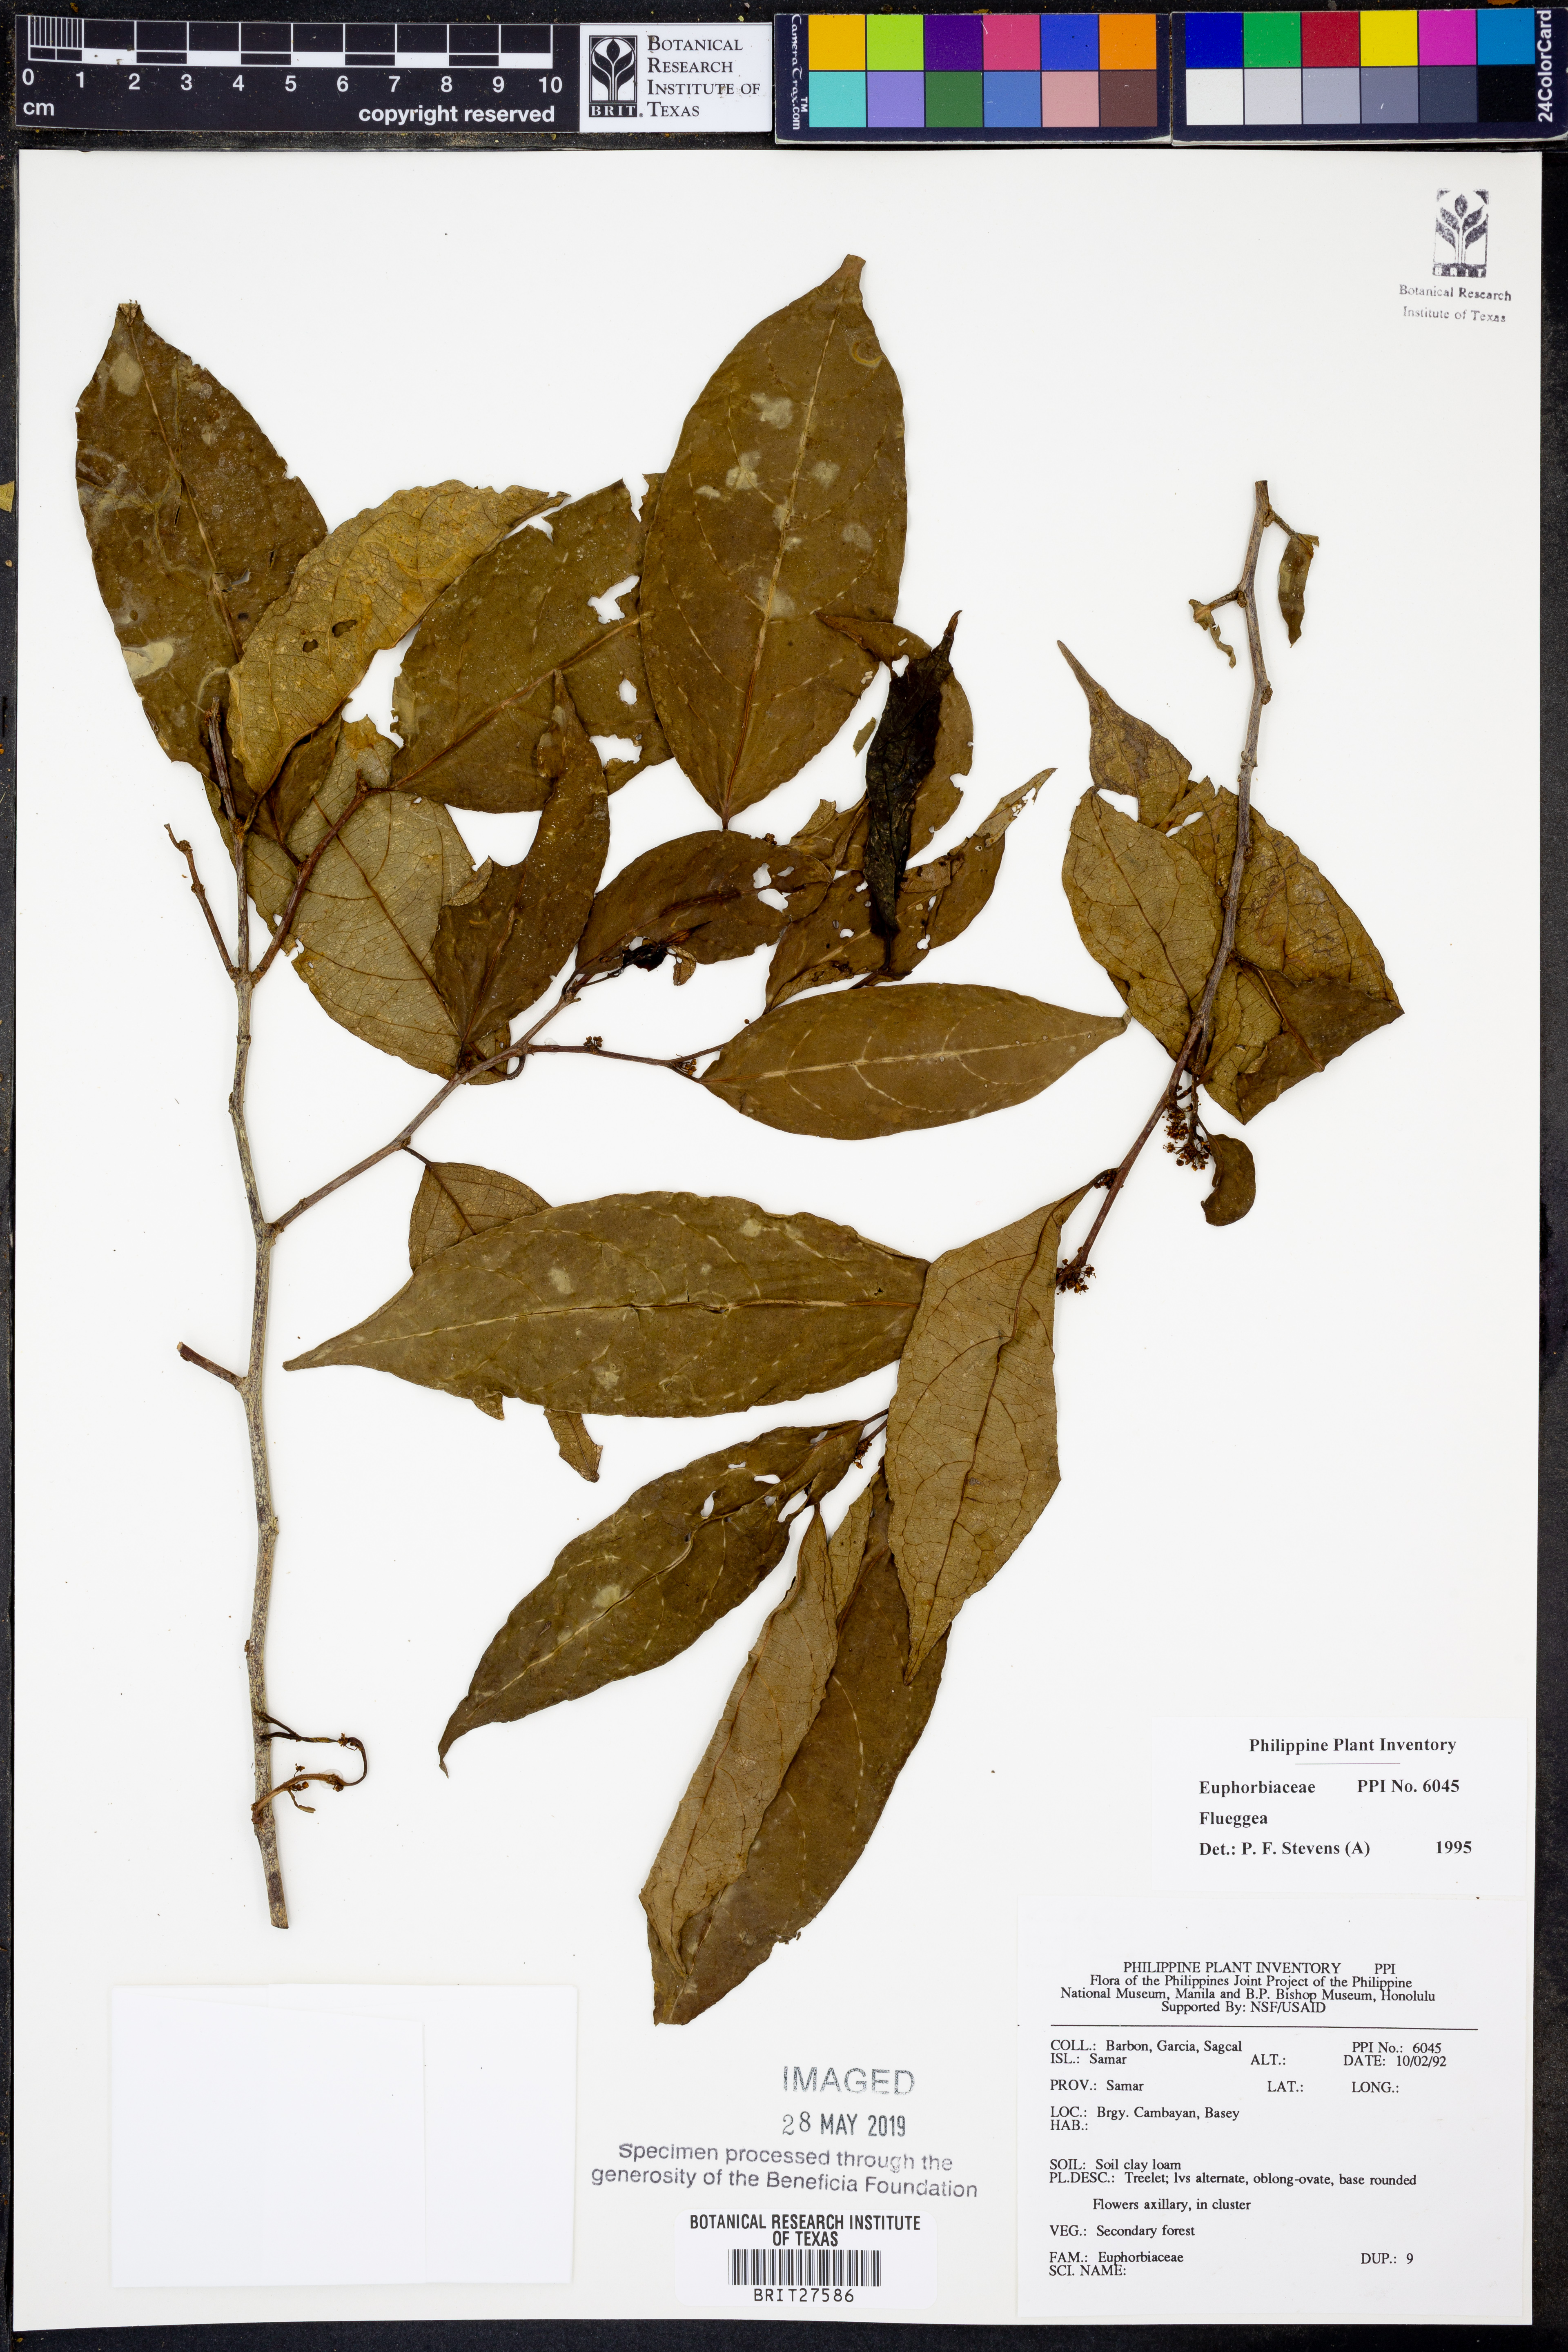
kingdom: Plantae
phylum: Tracheophyta
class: Magnoliopsida
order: Malpighiales
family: Phyllanthaceae
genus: Flueggea
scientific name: Flueggea
